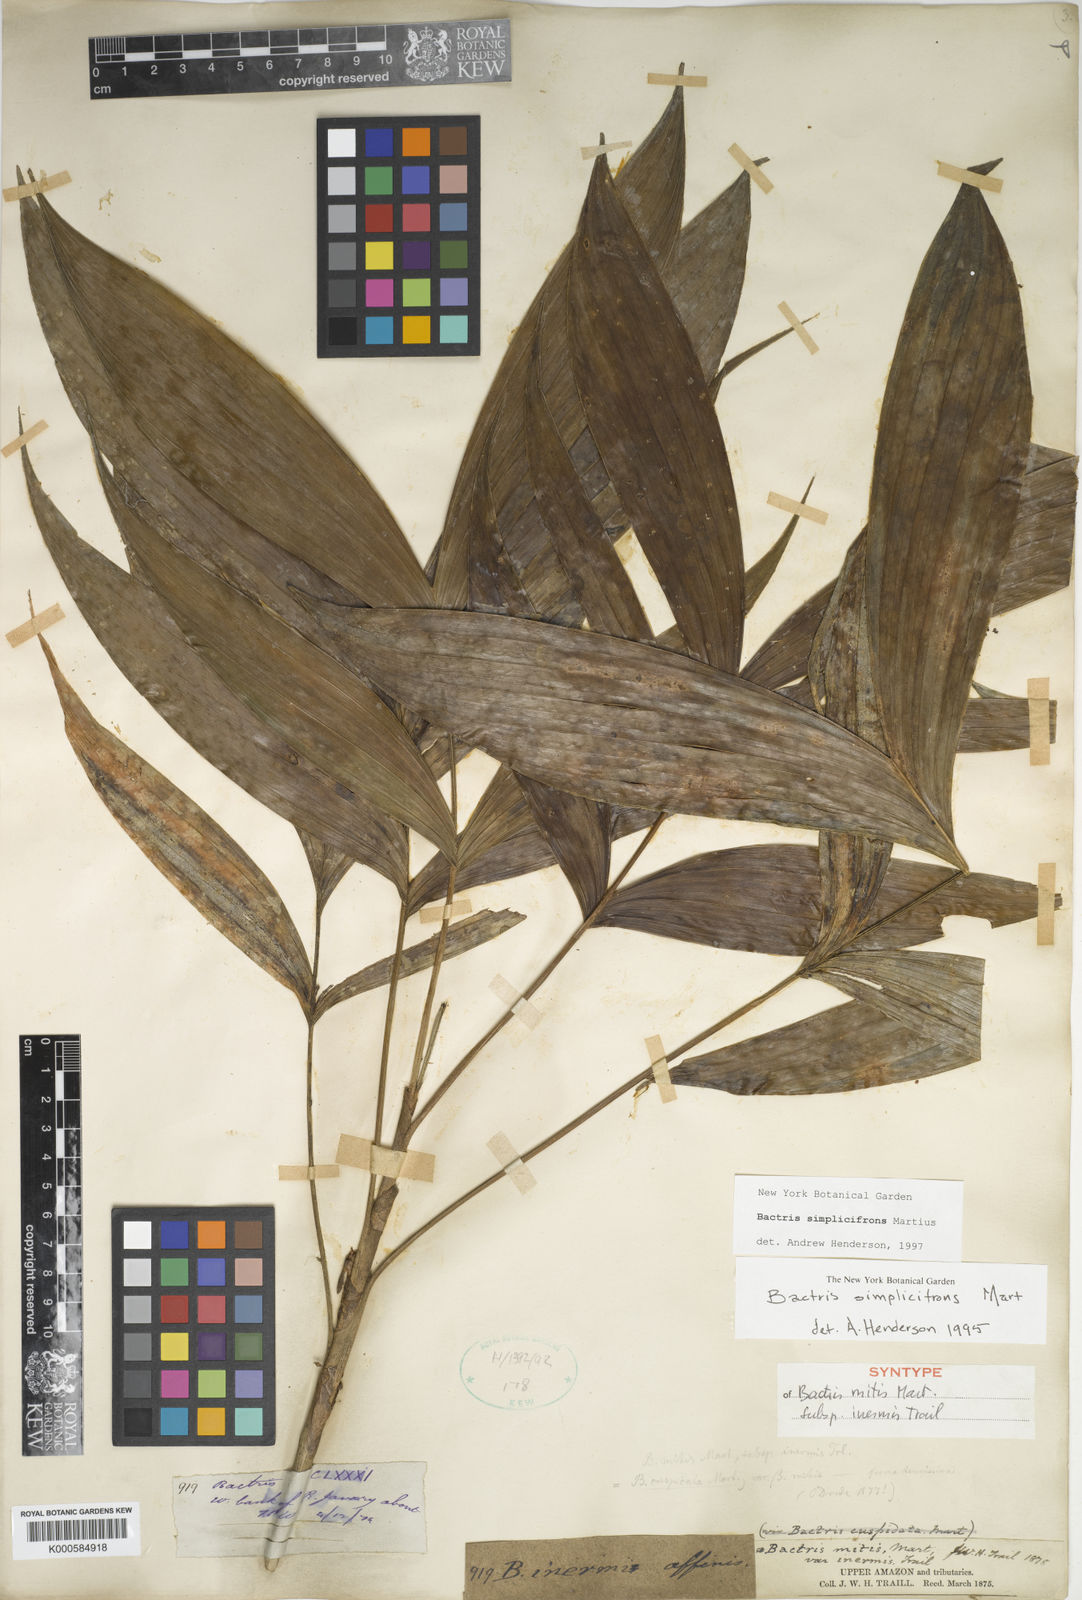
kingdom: Plantae
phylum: Tracheophyta
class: Liliopsida
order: Arecales
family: Arecaceae
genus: Bactris
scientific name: Bactris simplicifrons
